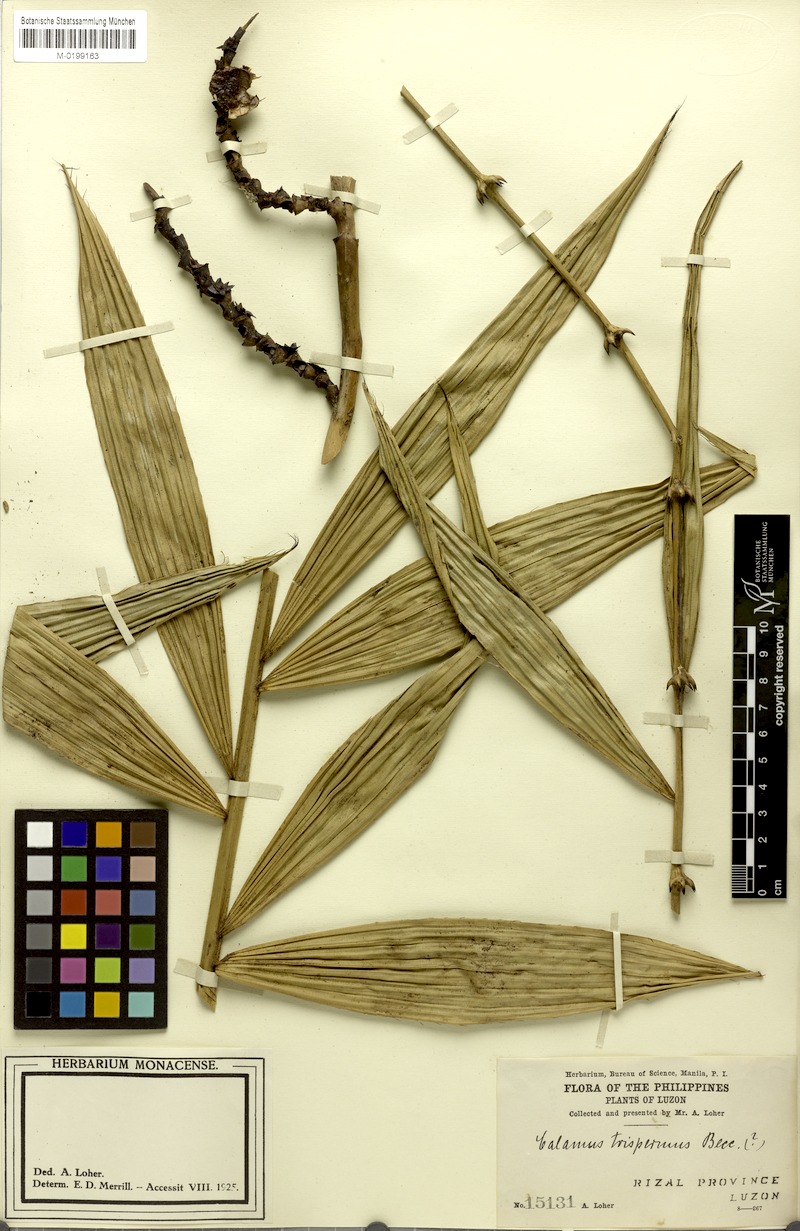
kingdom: Plantae
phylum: Tracheophyta
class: Liliopsida
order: Arecales
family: Arecaceae
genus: Calamus
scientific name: Calamus manillensis
